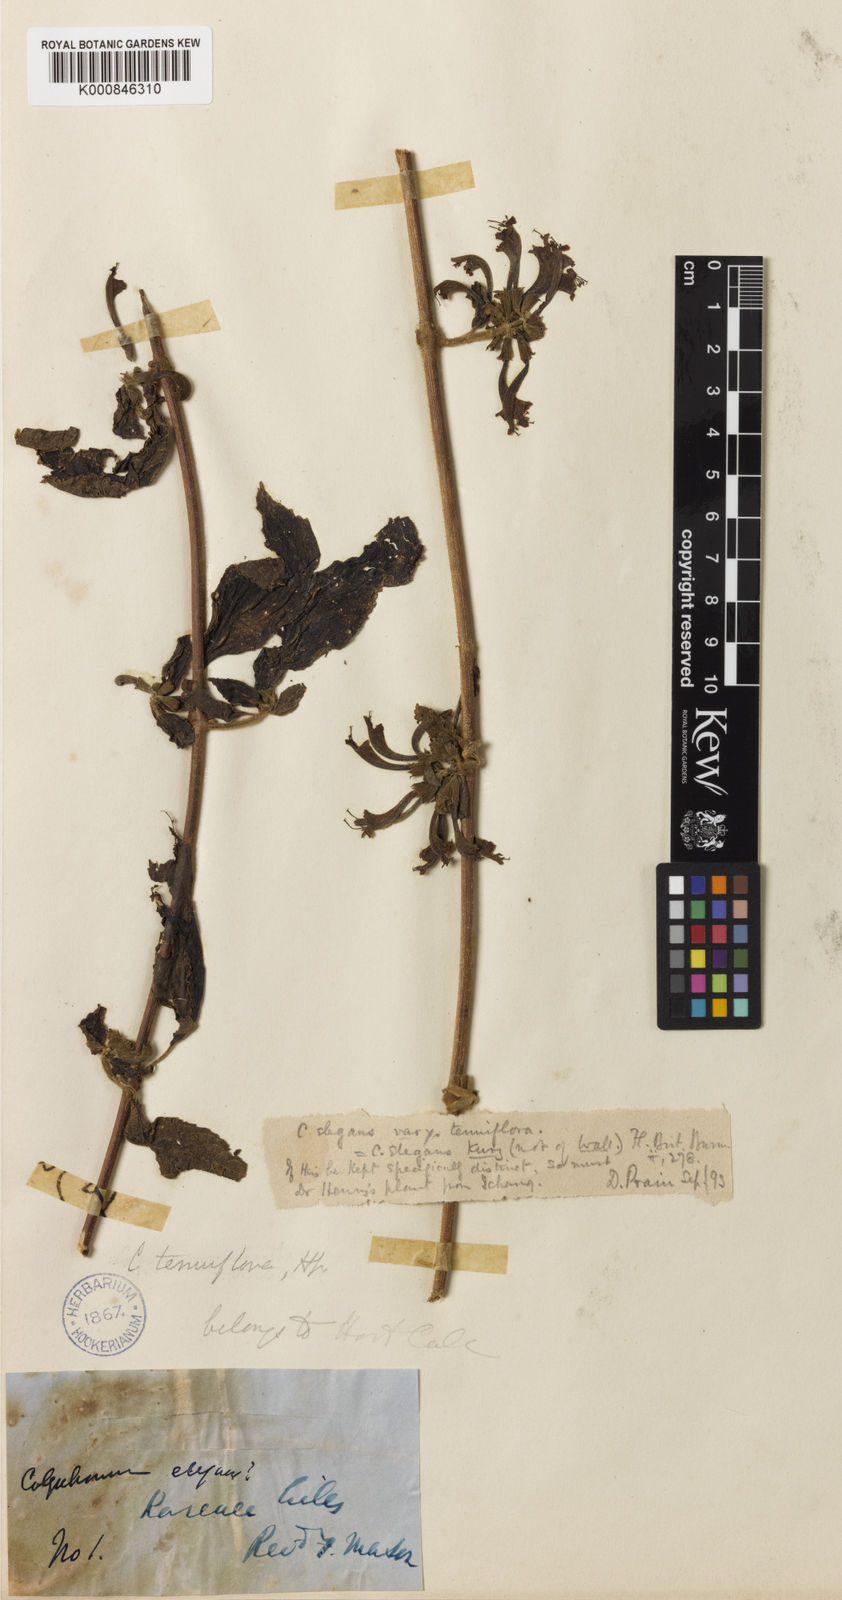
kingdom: Plantae
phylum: Tracheophyta
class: Magnoliopsida
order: Lamiales
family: Lamiaceae
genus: Colquhounia
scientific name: Colquhounia elegans
